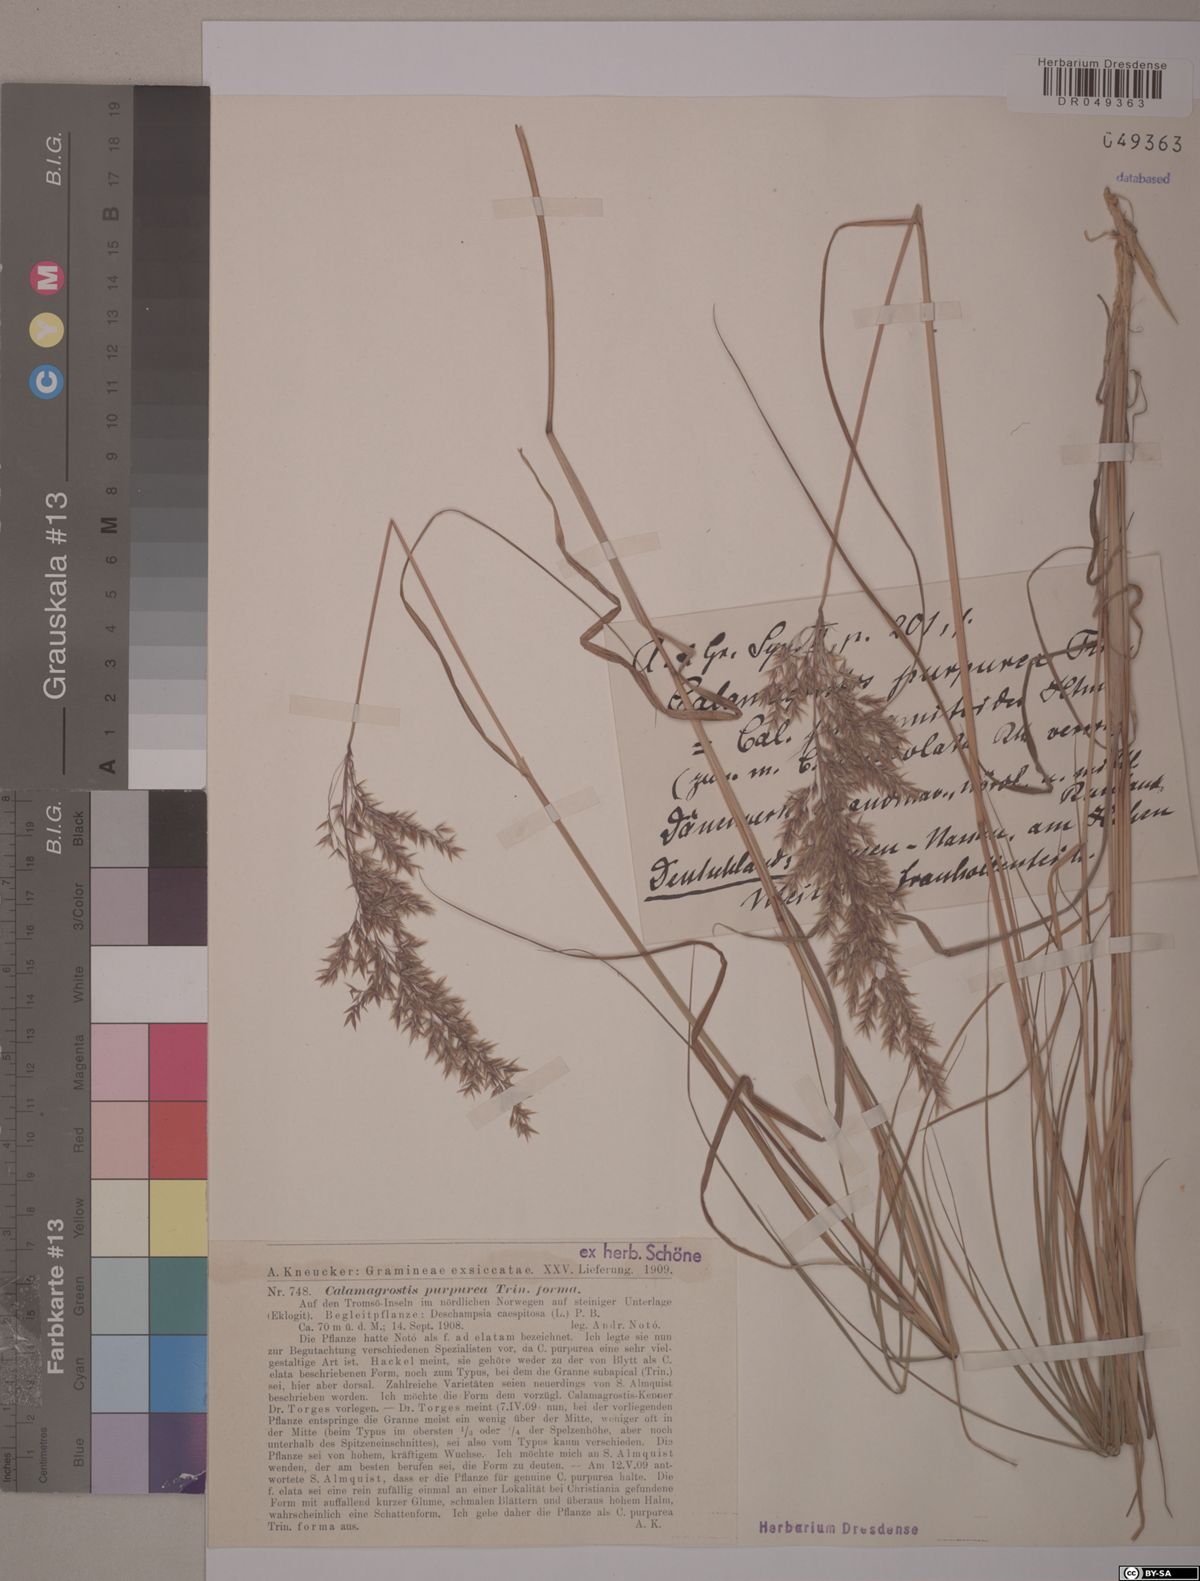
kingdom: Plantae
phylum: Tracheophyta
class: Liliopsida
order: Poales
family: Poaceae
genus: Calamagrostis
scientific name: Calamagrostis purpurea
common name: Scandinavian small-reed
